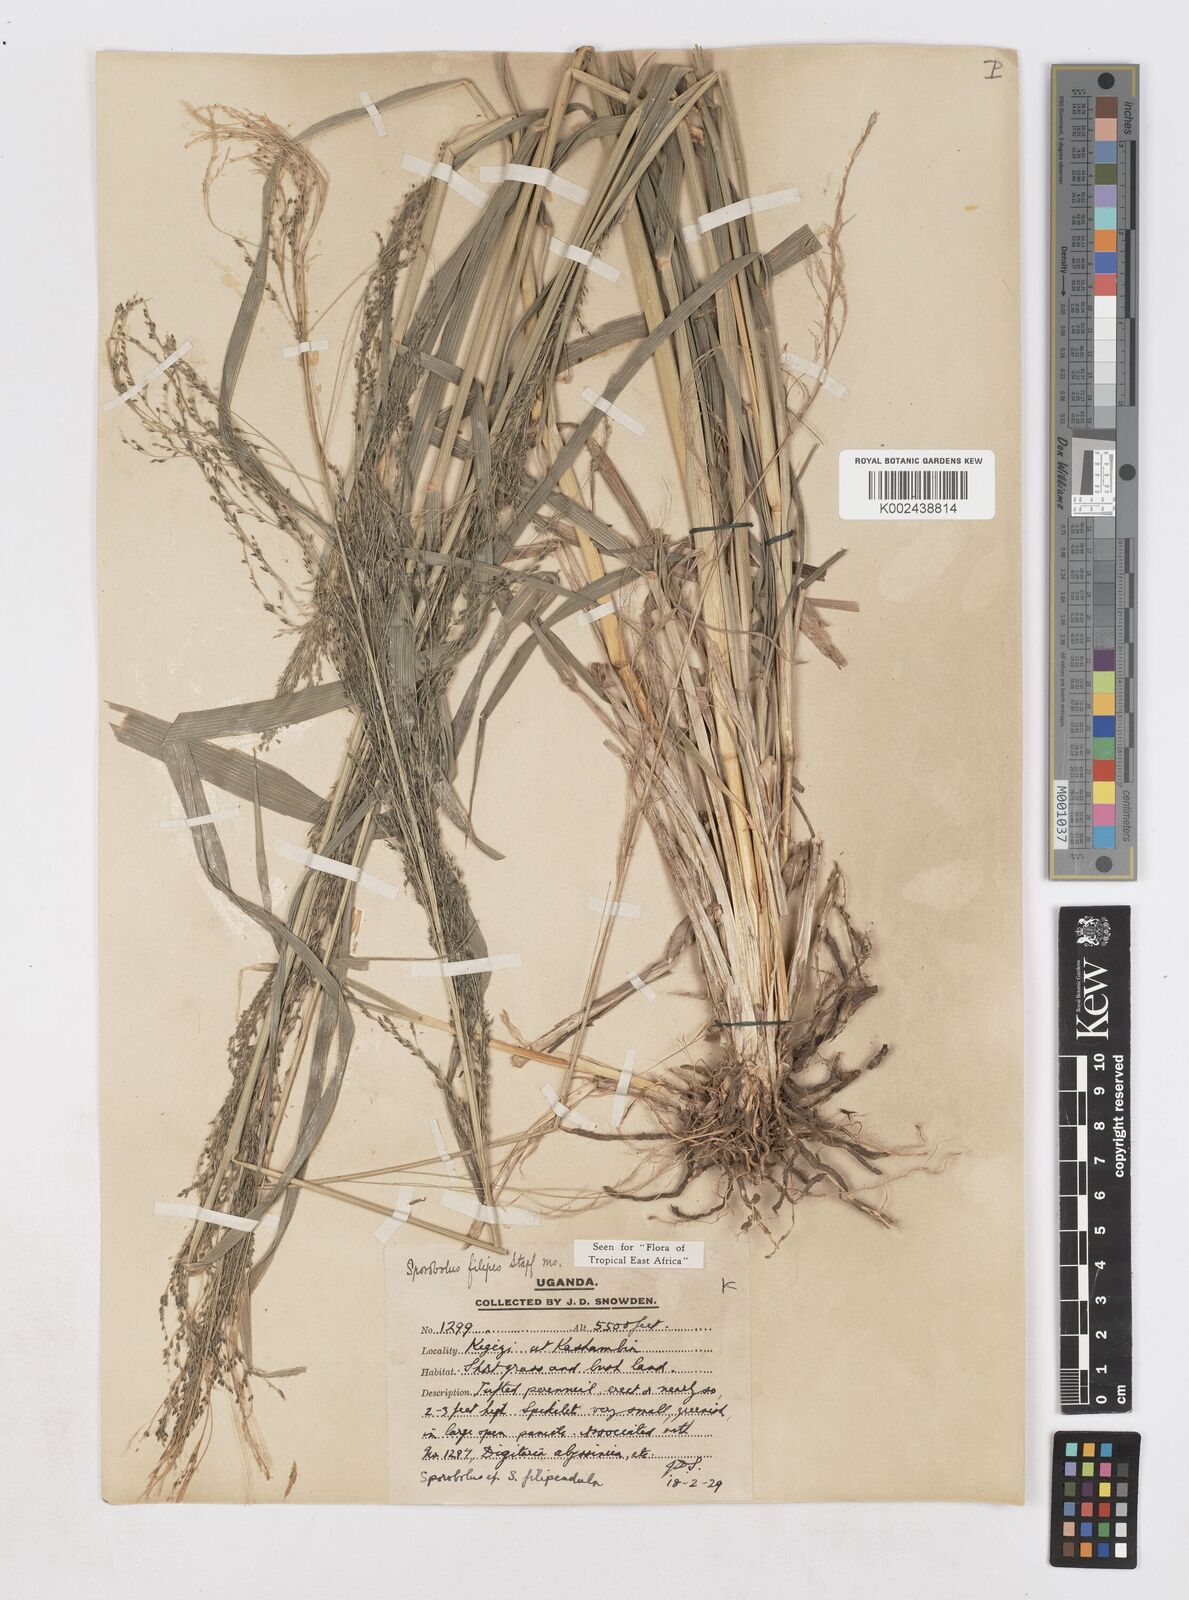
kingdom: Plantae
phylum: Tracheophyta
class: Liliopsida
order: Poales
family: Poaceae
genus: Sporobolus
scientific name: Sporobolus agrostoides
